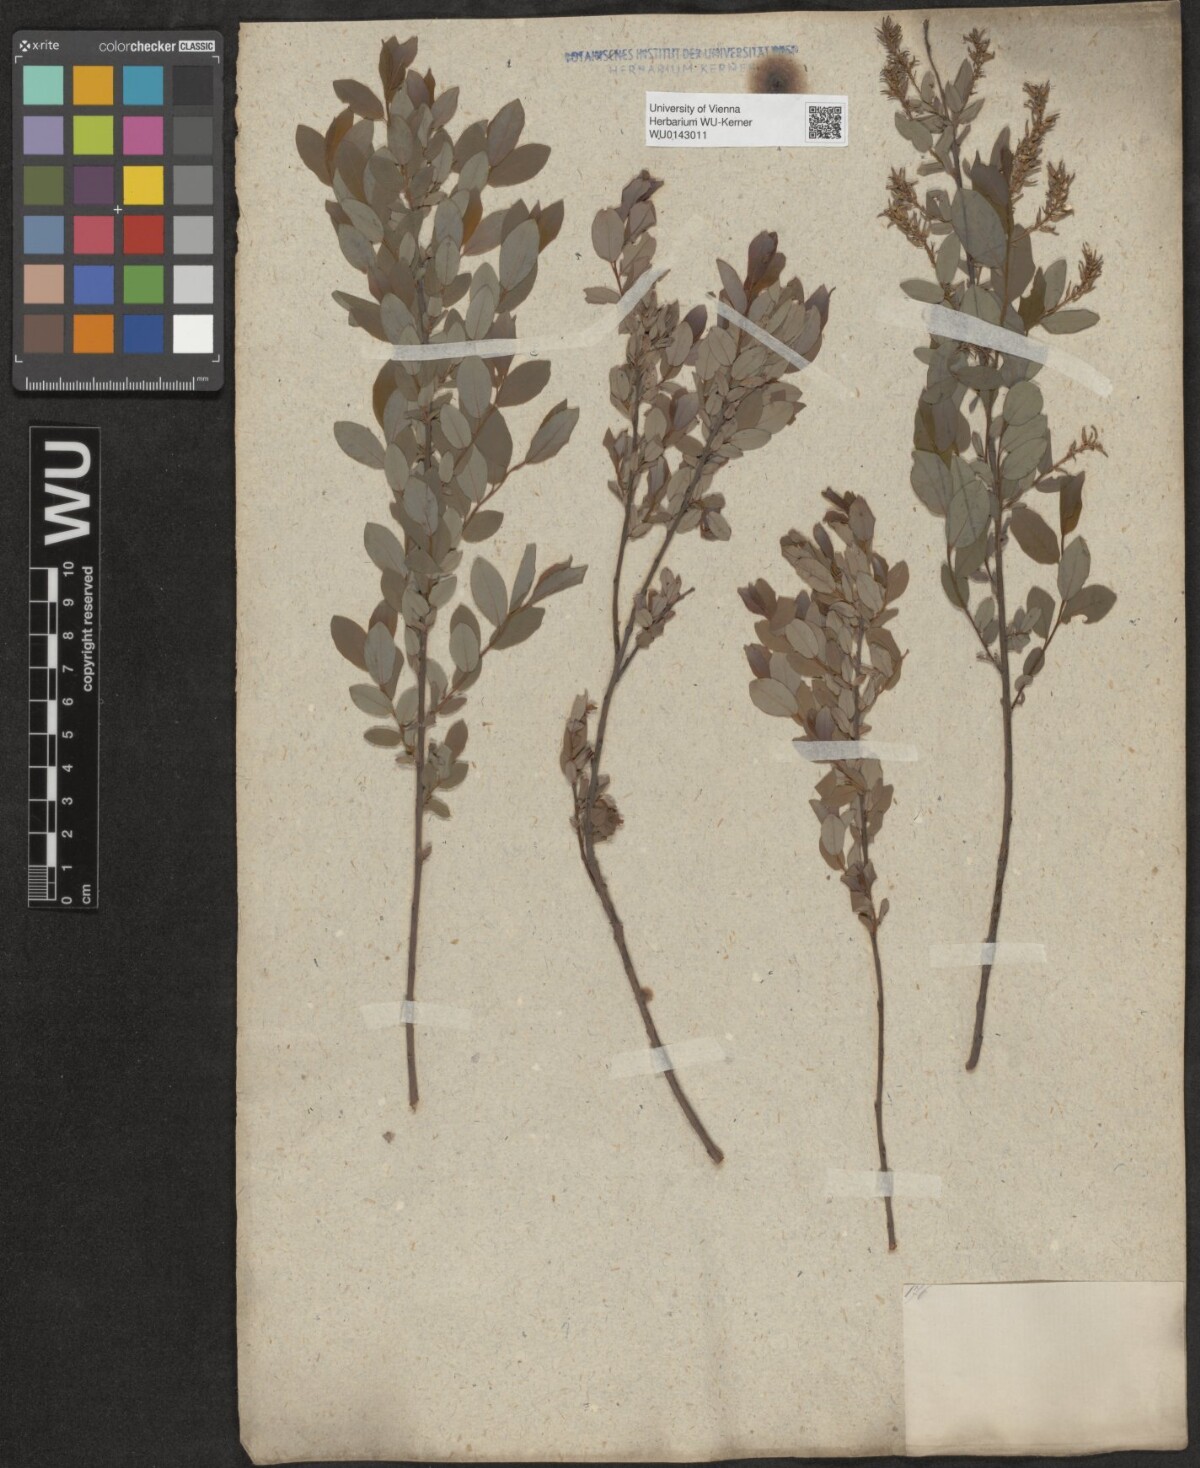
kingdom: Plantae
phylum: Tracheophyta
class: Magnoliopsida
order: Malpighiales
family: Salicaceae
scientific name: Salicaceae
